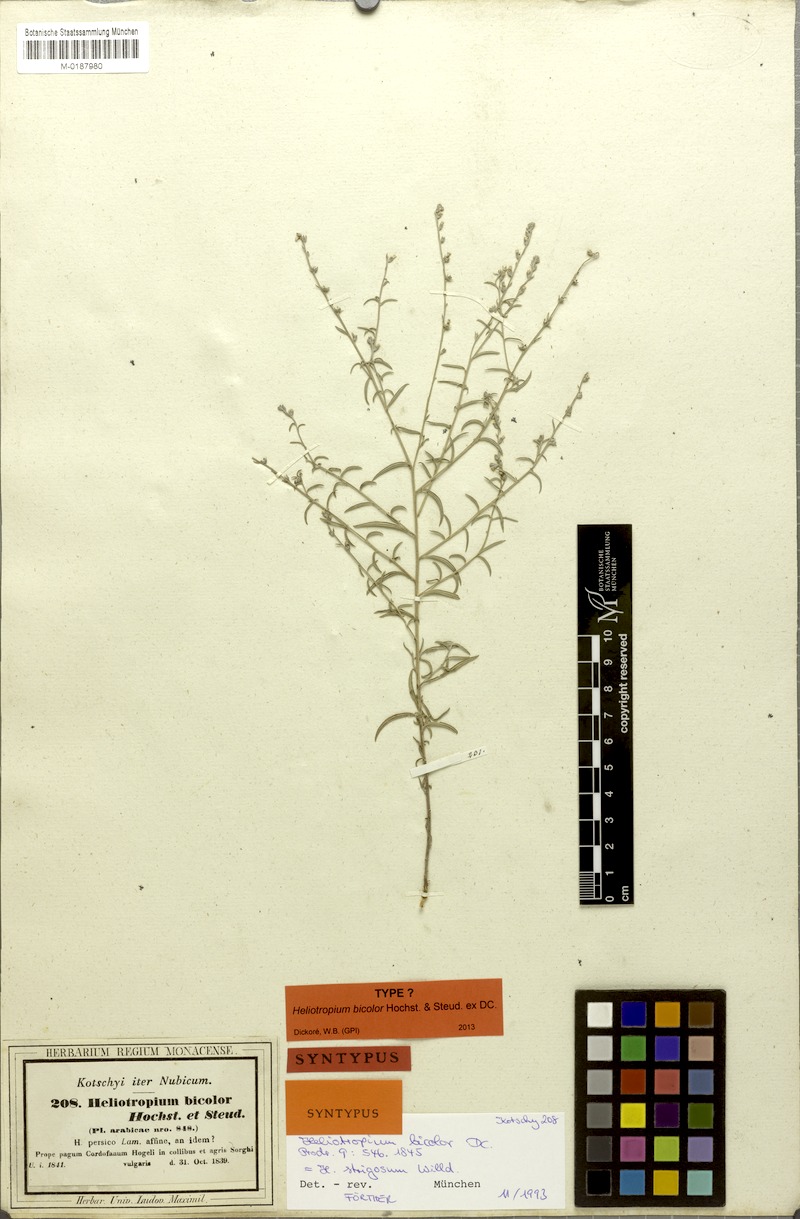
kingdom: Plantae
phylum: Tracheophyta
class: Magnoliopsida
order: Boraginales
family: Heliotropiaceae
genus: Euploca
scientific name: Euploca strigosa
